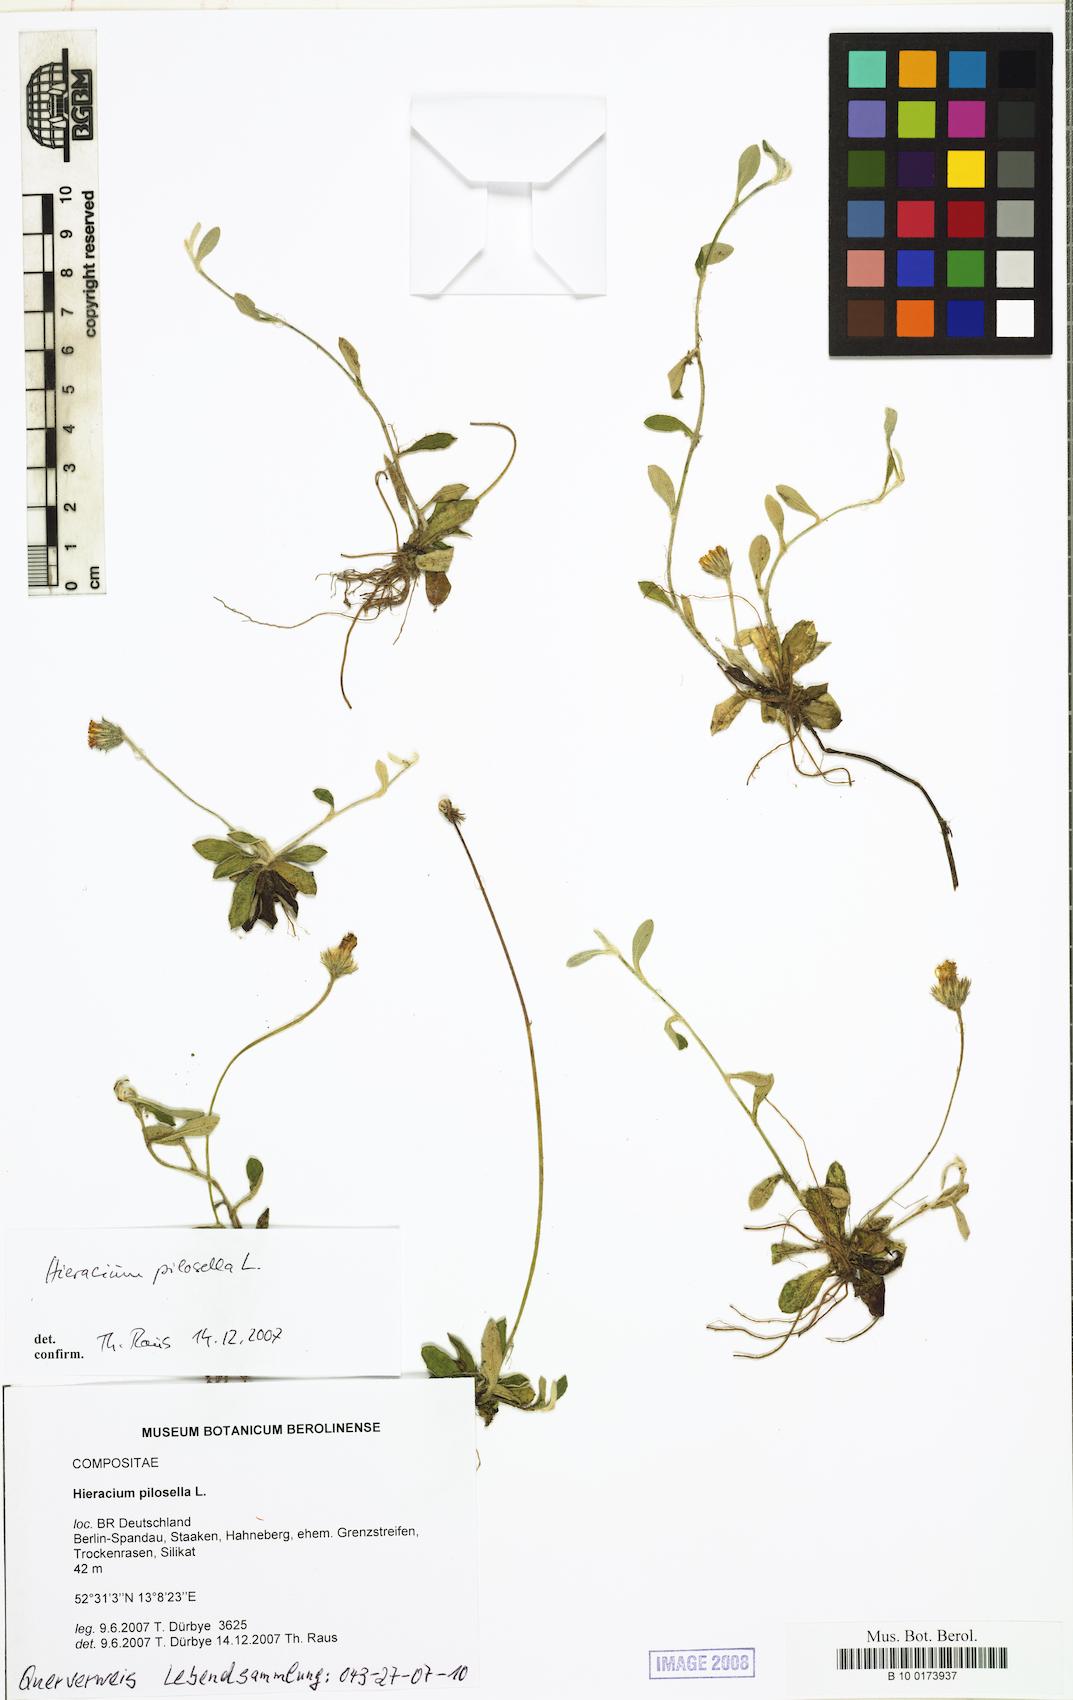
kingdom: Plantae
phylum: Tracheophyta
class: Magnoliopsida
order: Asterales
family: Asteraceae
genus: Pilosella
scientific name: Pilosella officinarum
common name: Mouse-ear hawkweed
